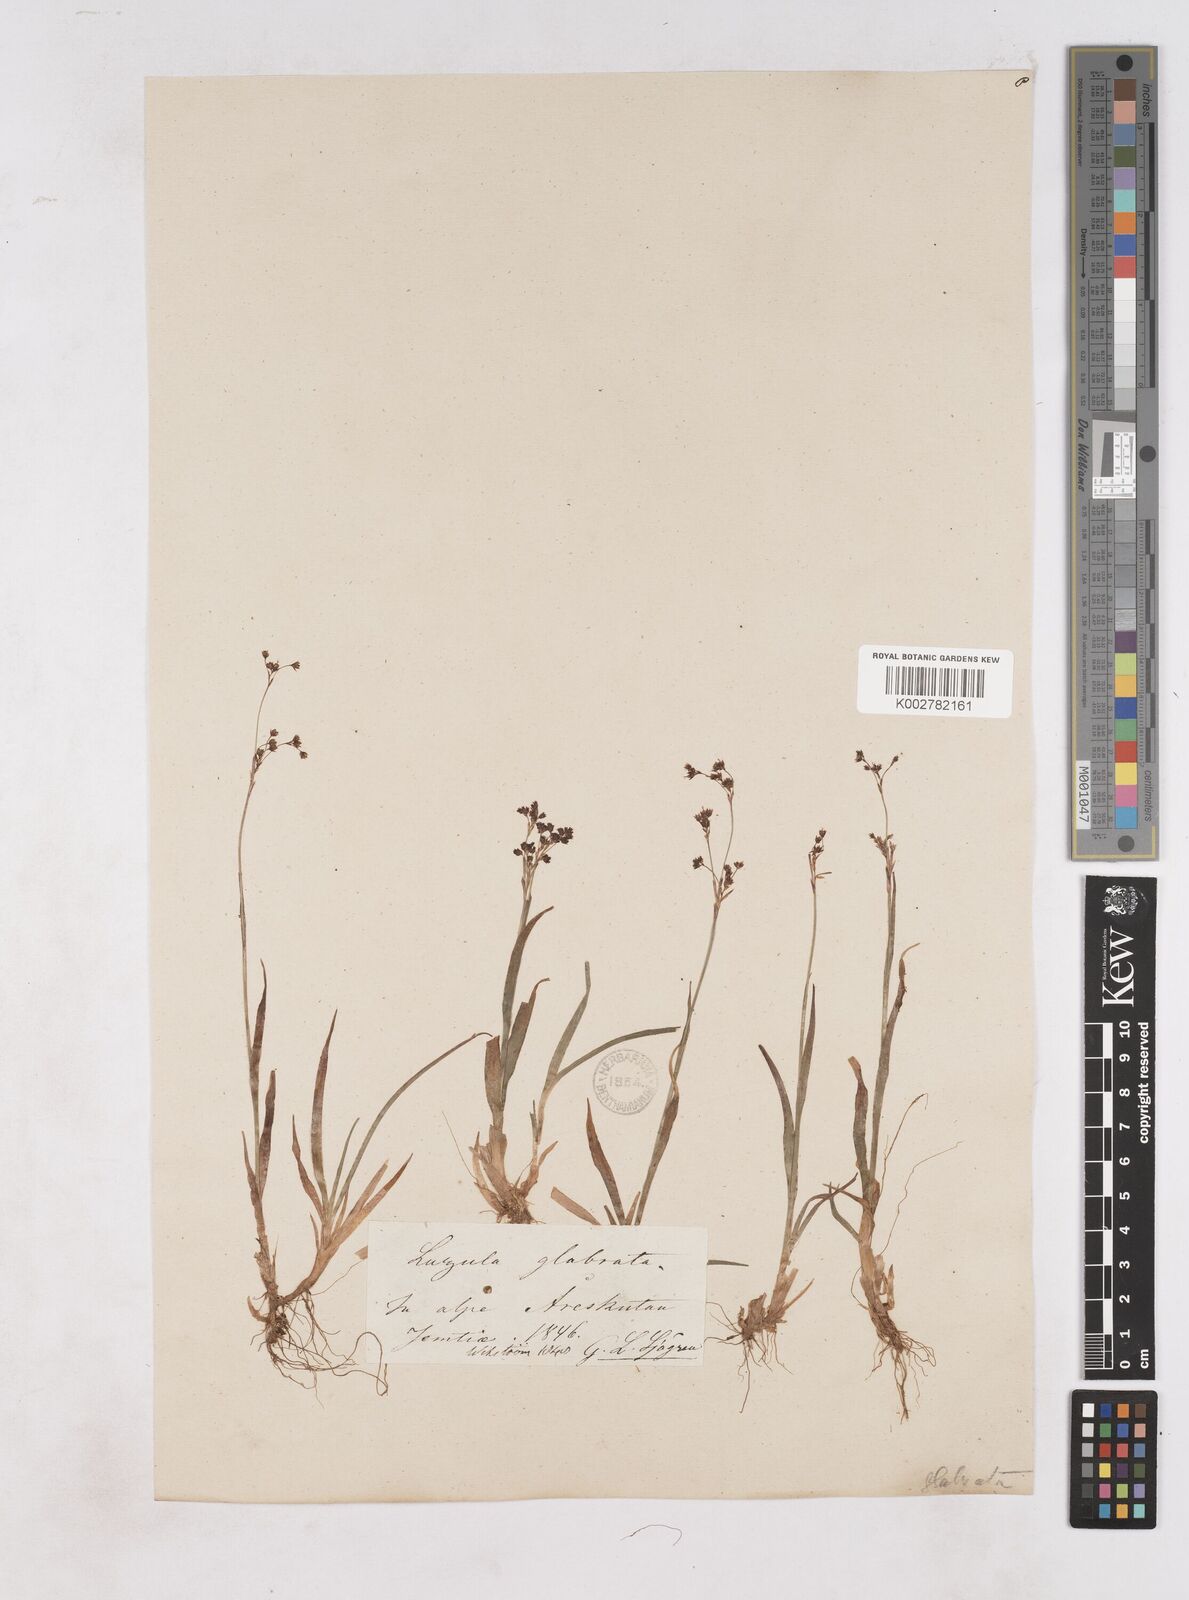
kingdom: Plantae
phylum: Tracheophyta
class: Liliopsida
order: Poales
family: Juncaceae
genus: Luzula
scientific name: Luzula glabrata
